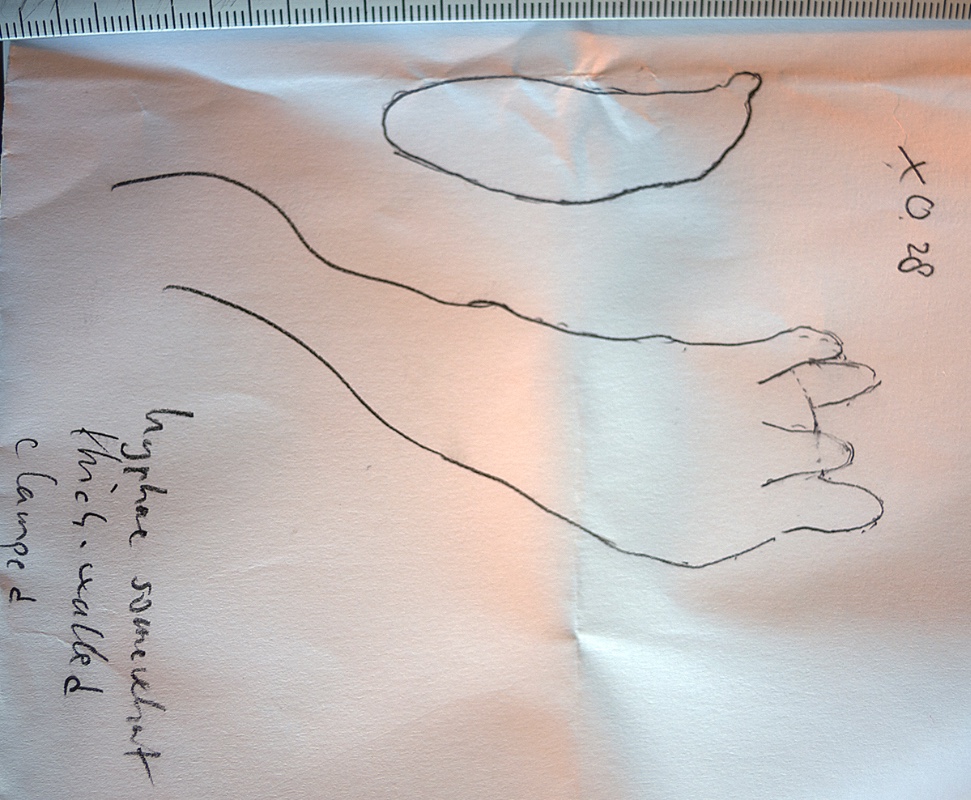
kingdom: Fungi
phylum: Basidiomycota
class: Agaricomycetes
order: Agaricales
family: Typhulaceae
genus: Macrotyphula
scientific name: Macrotyphula
